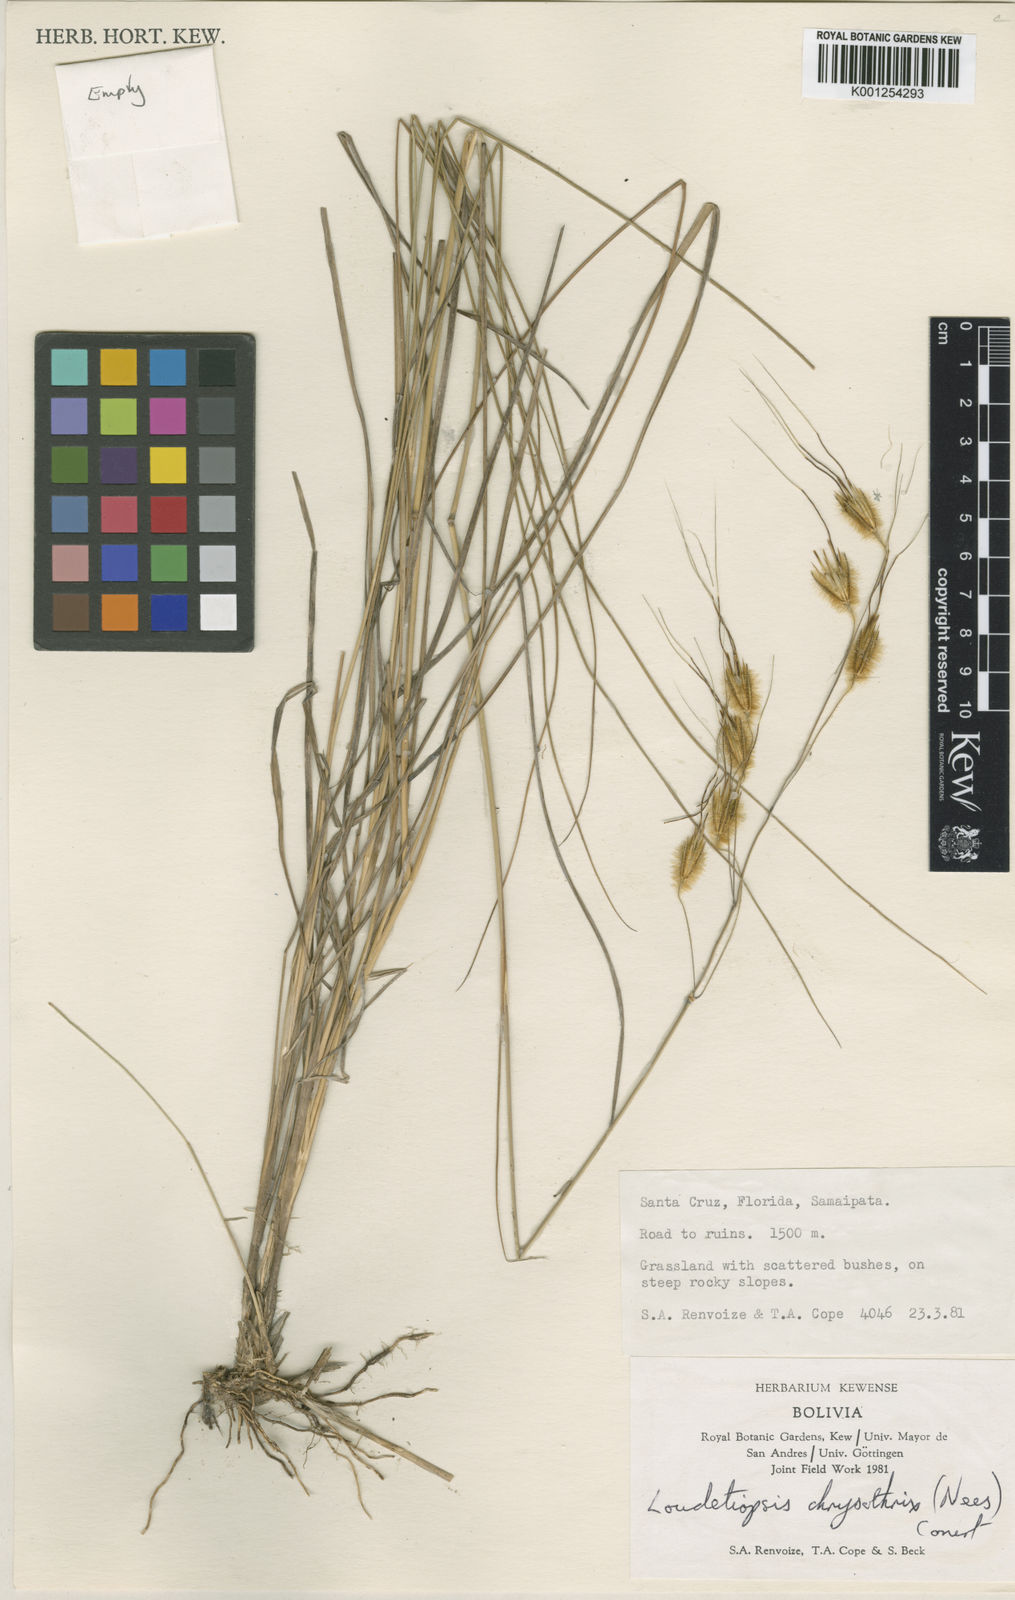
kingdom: Plantae
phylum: Tracheophyta
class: Liliopsida
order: Poales
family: Poaceae
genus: Loudetiopsis
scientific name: Loudetiopsis chrysothrix
